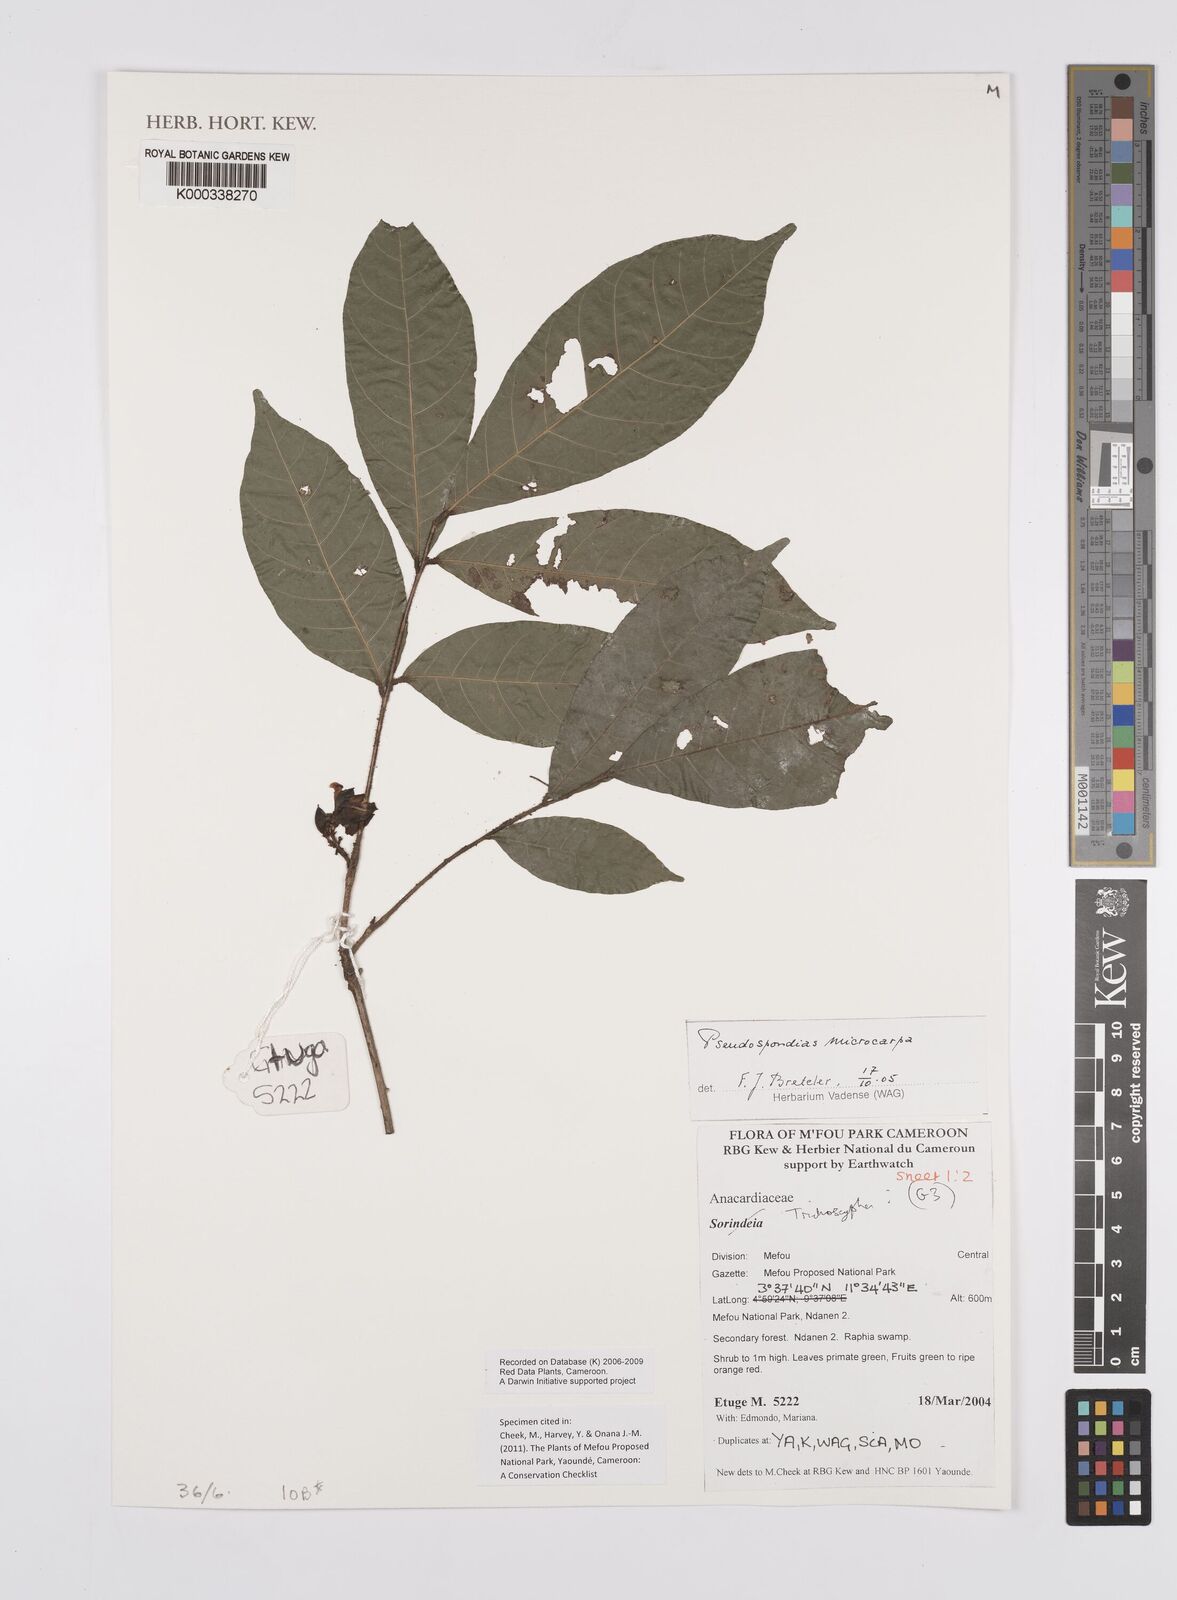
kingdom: Plantae
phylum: Tracheophyta
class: Magnoliopsida
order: Sapindales
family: Anacardiaceae
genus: Sorindeia
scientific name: Sorindeia grandifolia
